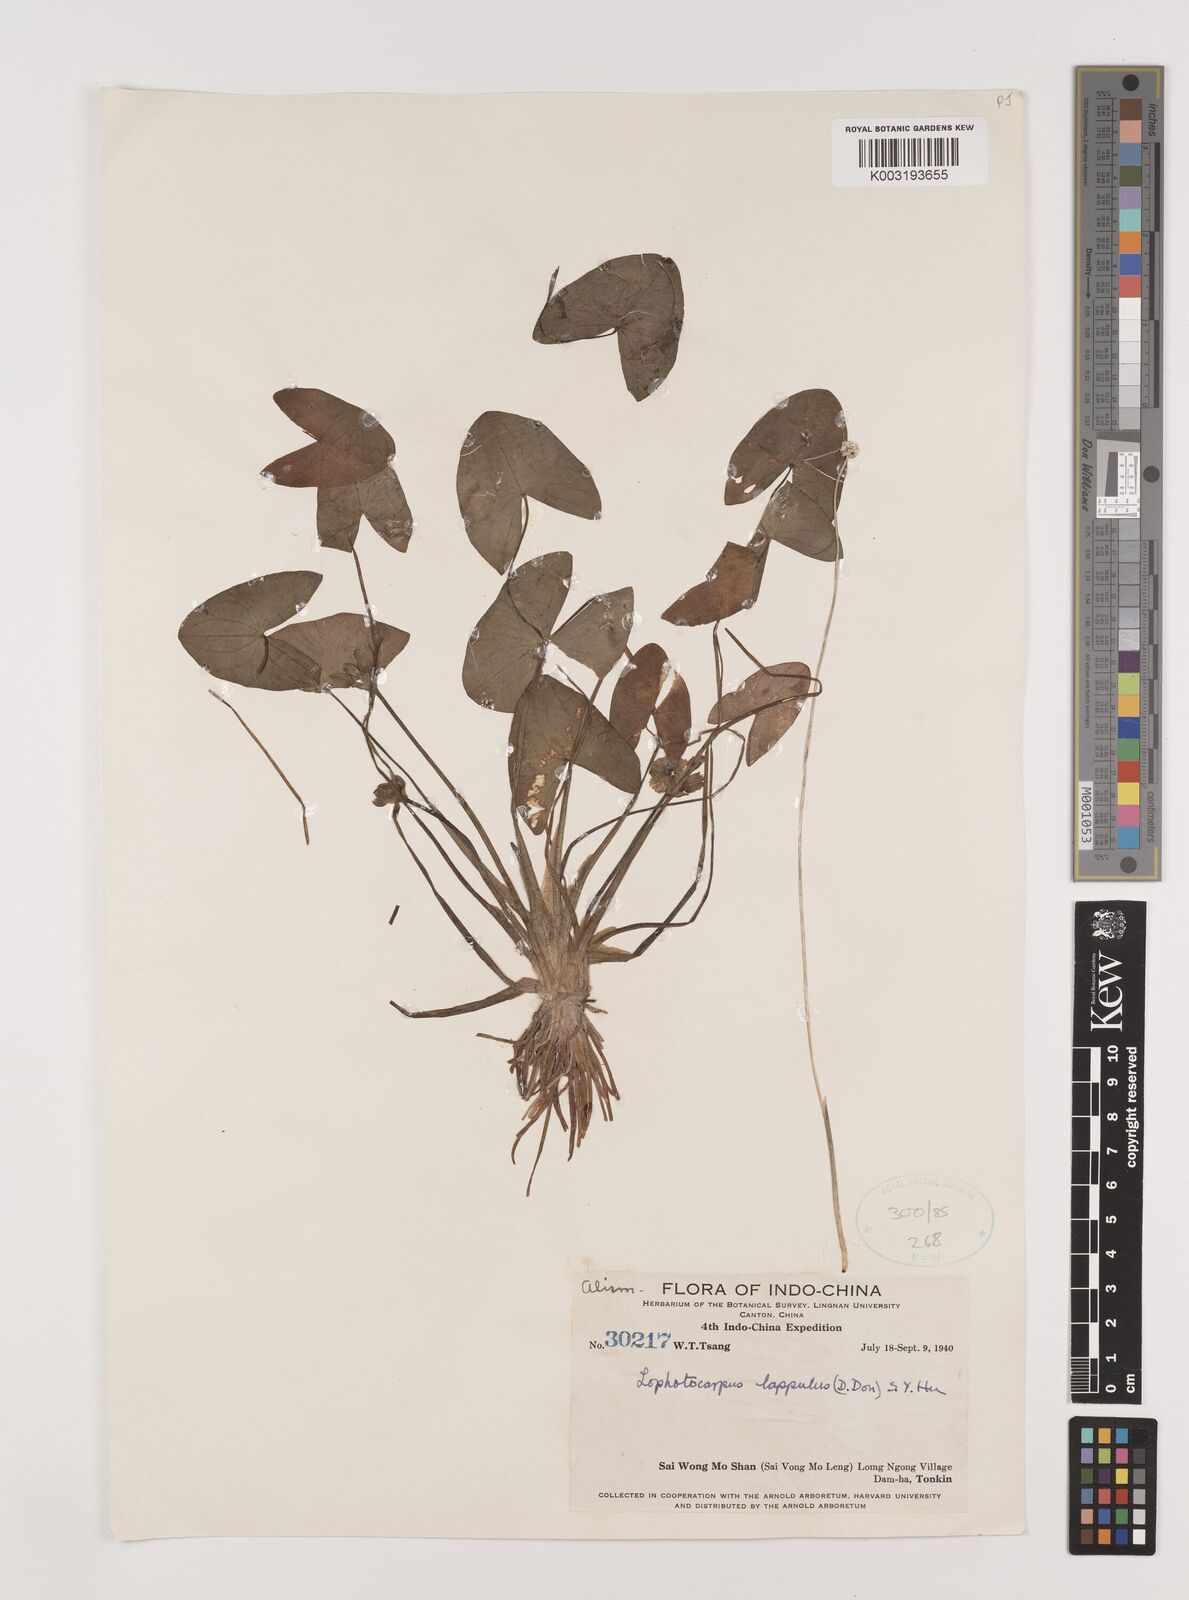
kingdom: Plantae
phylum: Tracheophyta
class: Liliopsida
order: Alismatales
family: Alismataceae
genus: Sagittaria
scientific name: Sagittaria guayanensis
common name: Guyanese arrowhead
